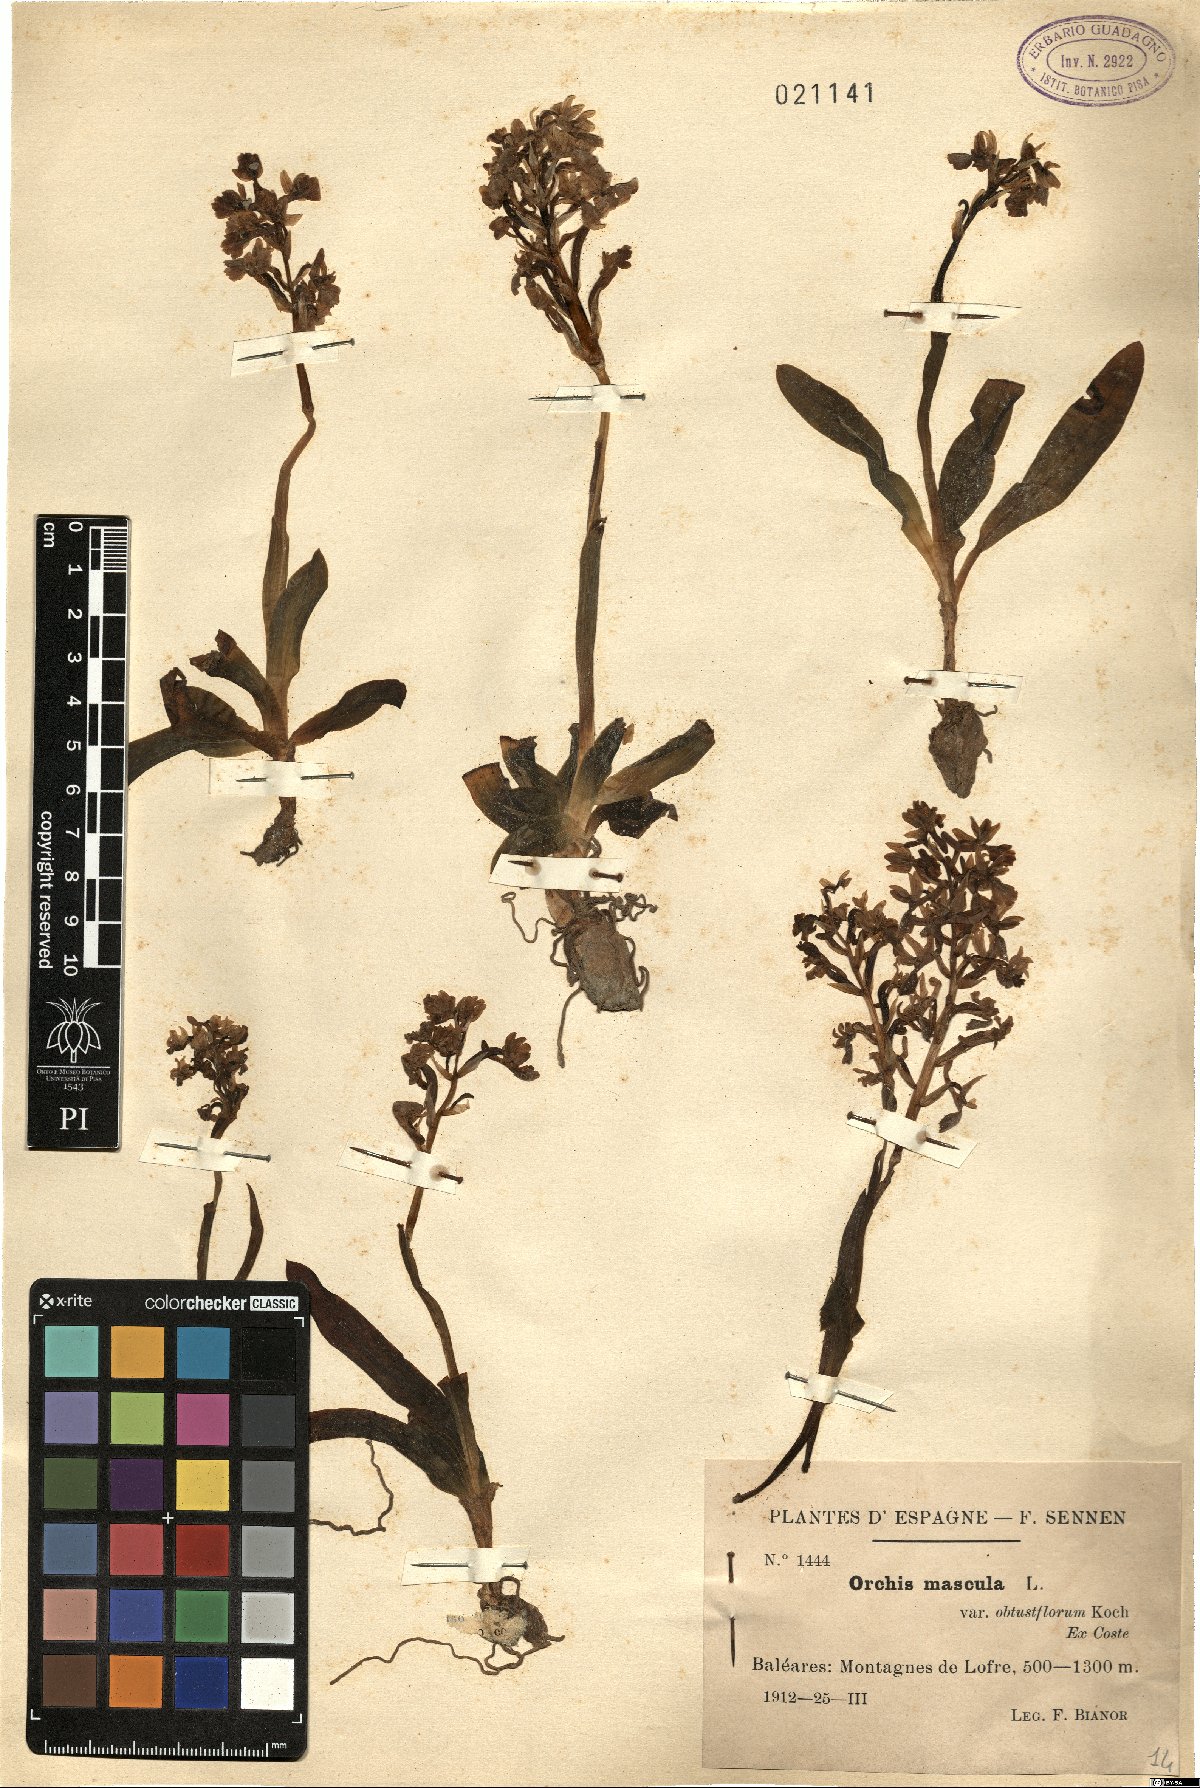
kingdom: Plantae
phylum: Tracheophyta
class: Liliopsida
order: Asparagales
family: Orchidaceae
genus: Orchis
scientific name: Orchis mascula
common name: Early-purple orchid
